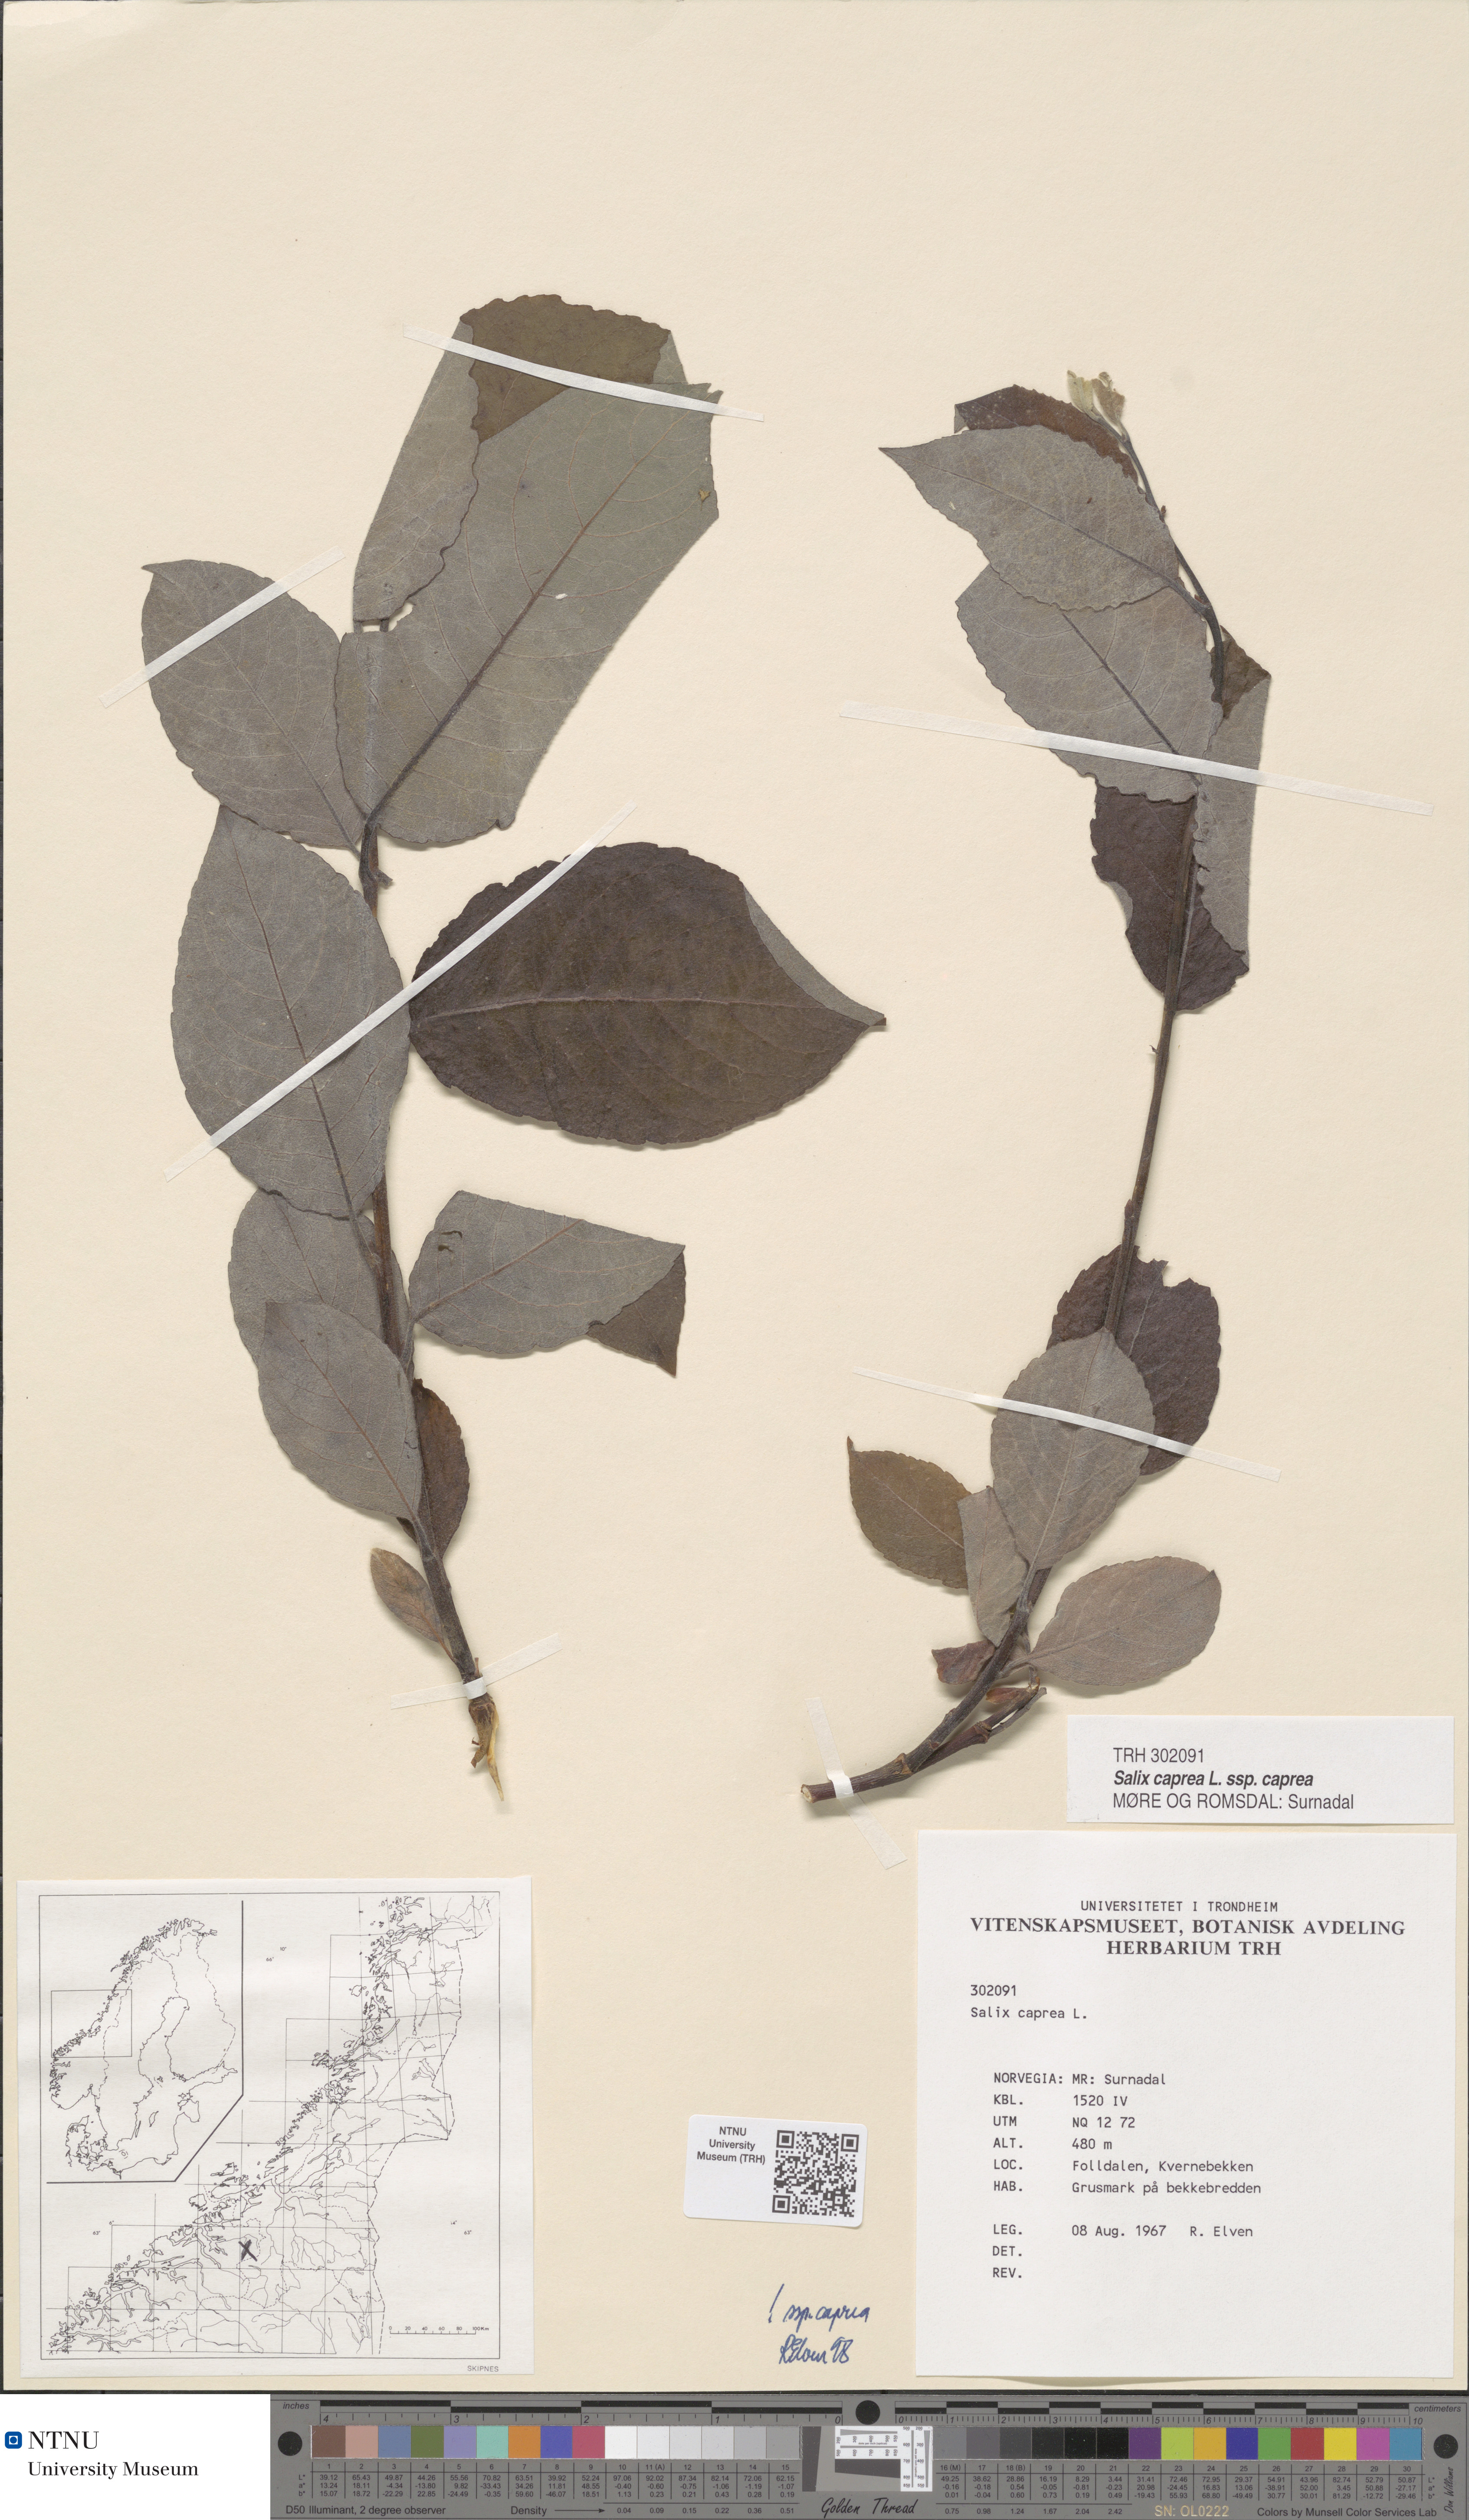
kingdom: Plantae
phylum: Tracheophyta
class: Magnoliopsida
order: Malpighiales
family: Salicaceae
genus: Salix
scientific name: Salix caprea
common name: Goat willow
